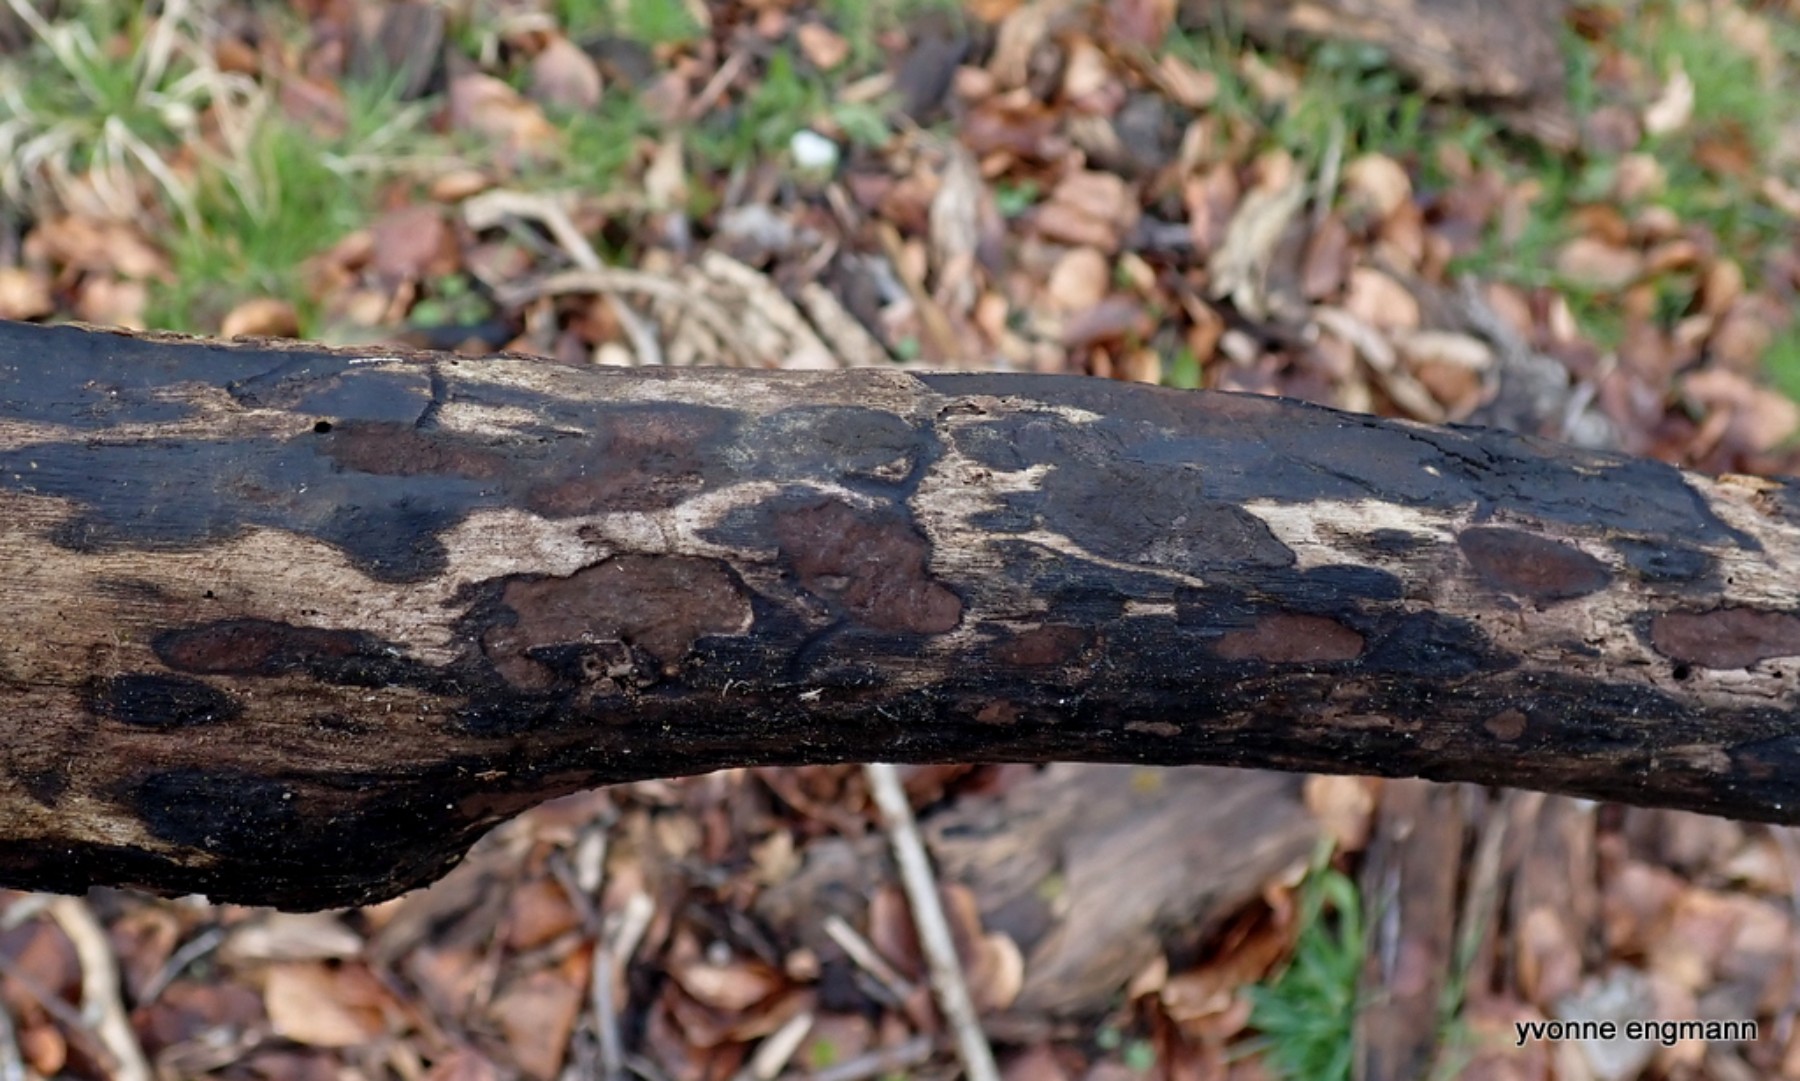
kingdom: Fungi
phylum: Ascomycota
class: Sordariomycetes
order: Xylariales
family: Hypoxylaceae
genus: Hypoxylon
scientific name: Hypoxylon petriniae
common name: nedsænket kulbær
